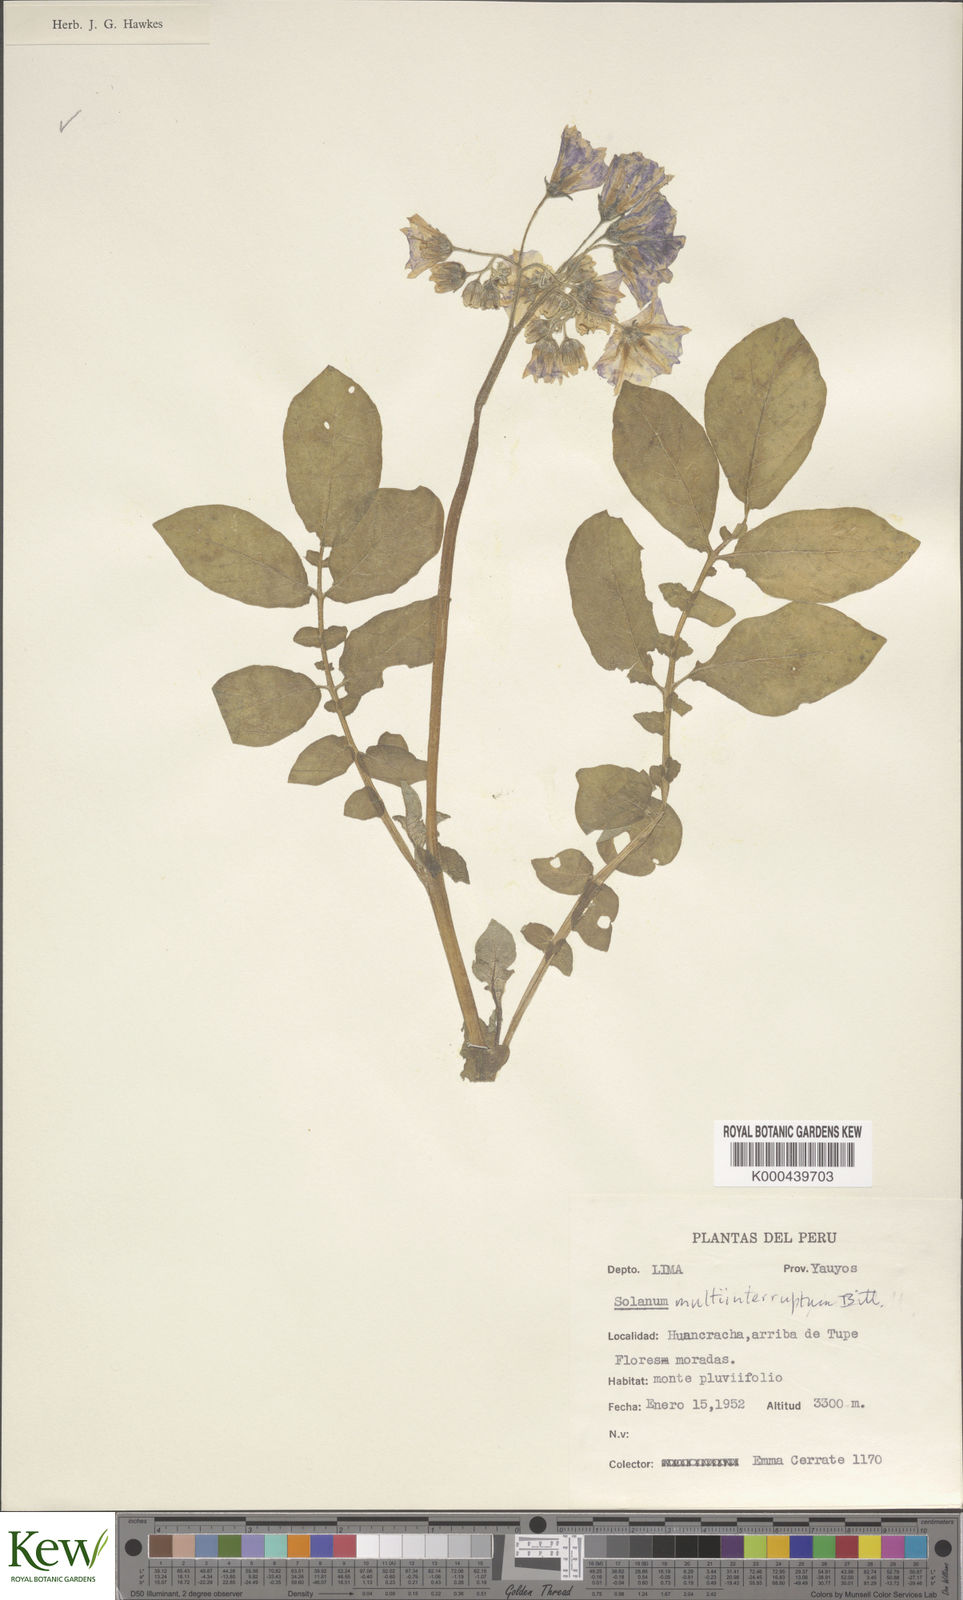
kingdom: Plantae
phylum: Tracheophyta
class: Magnoliopsida
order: Solanales
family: Solanaceae
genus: Solanum
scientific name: Solanum candolleanum
